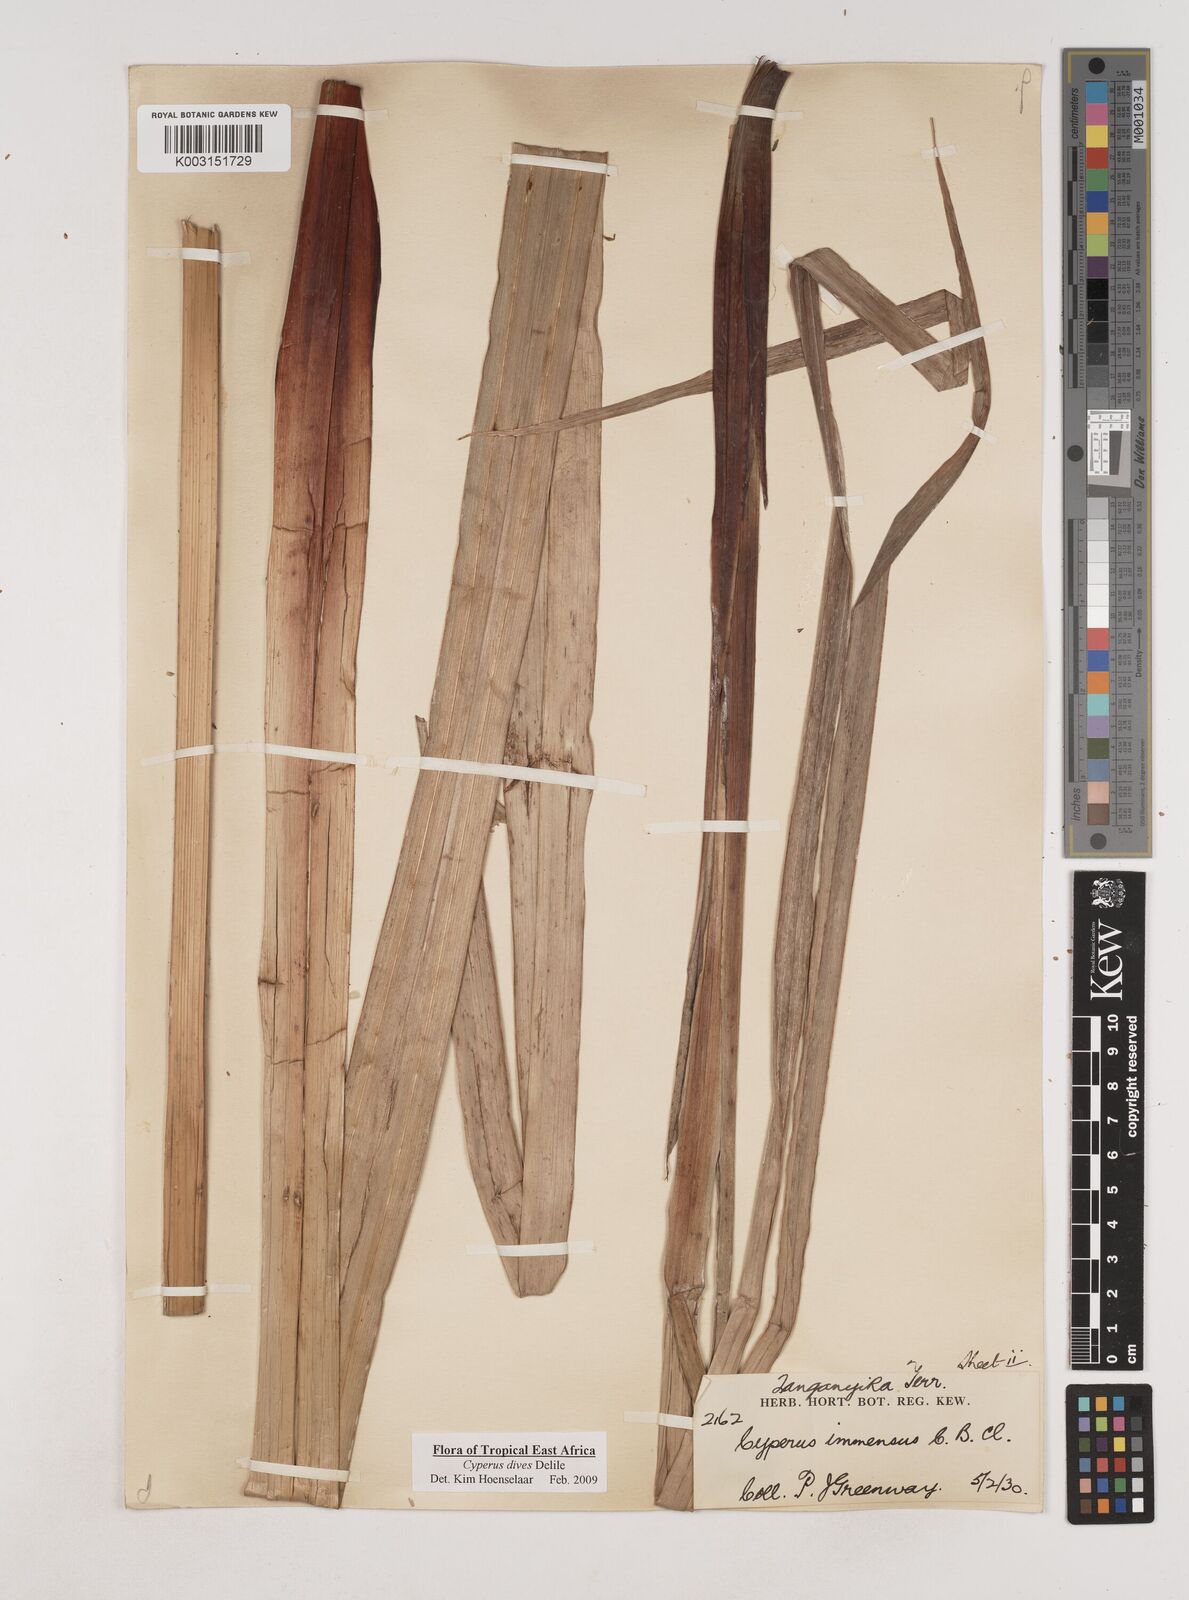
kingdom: Plantae
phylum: Tracheophyta
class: Liliopsida
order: Poales
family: Cyperaceae
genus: Cyperus
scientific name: Cyperus dives
